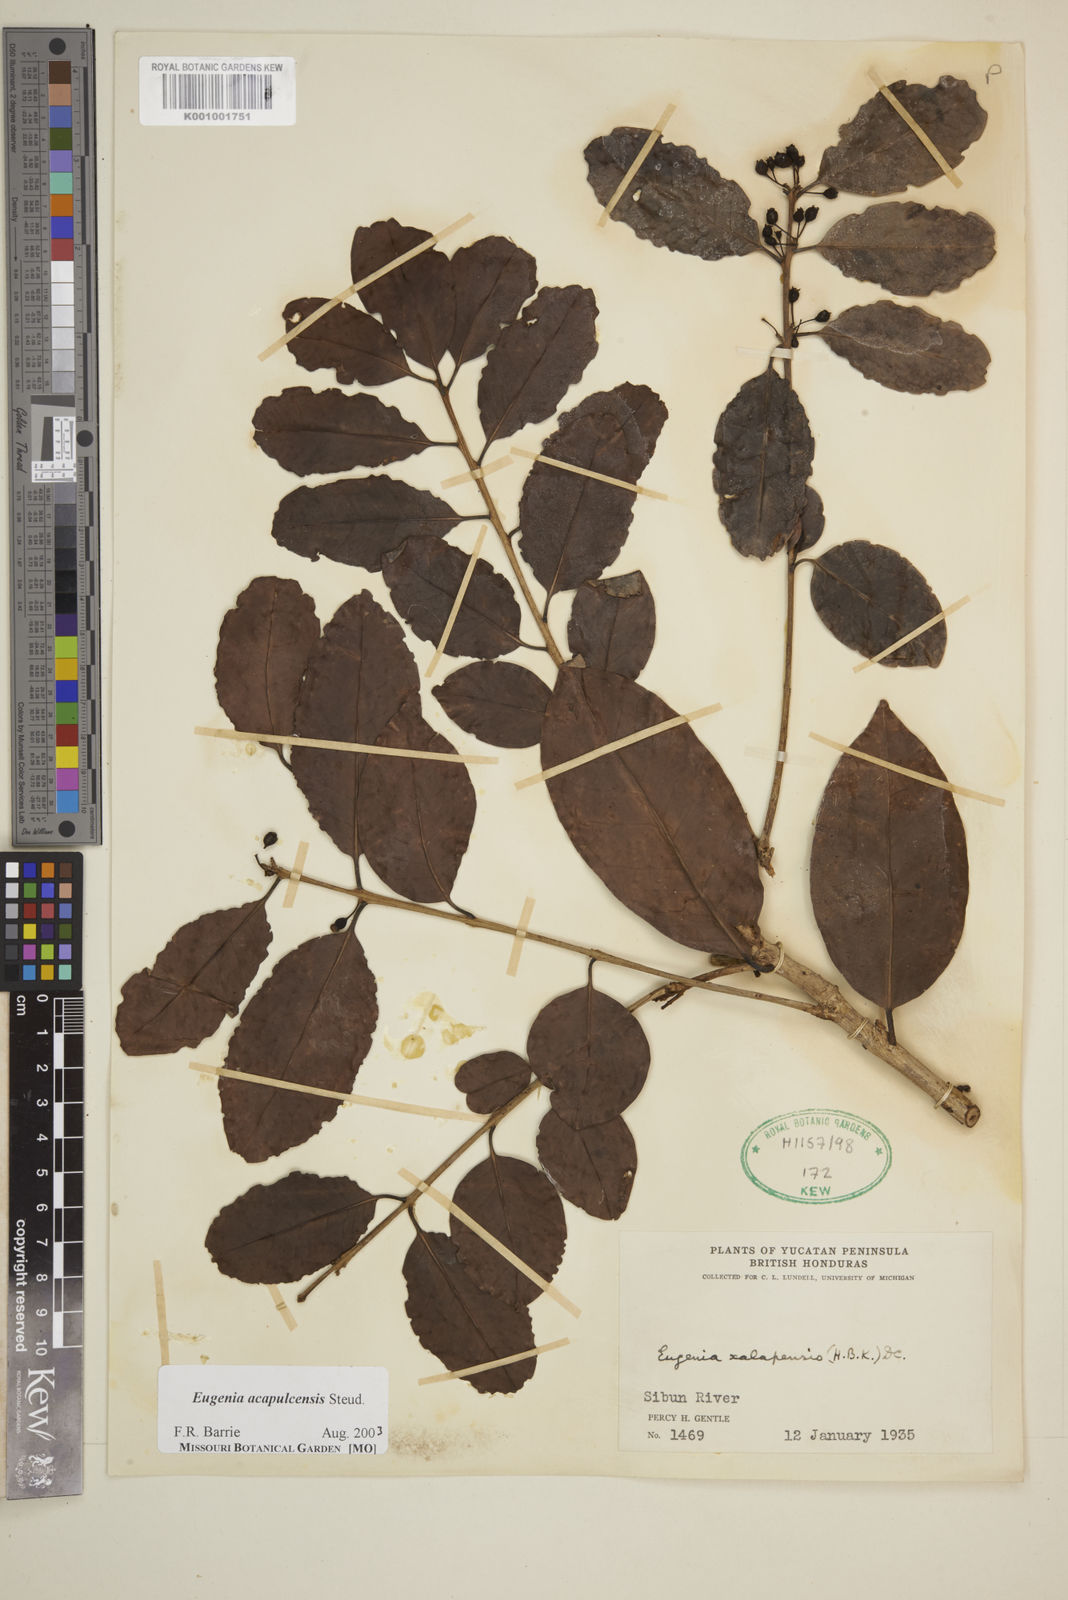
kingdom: Plantae
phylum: Tracheophyta
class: Magnoliopsida
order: Myrtales
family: Myrtaceae
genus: Eugenia
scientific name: Eugenia acapulcensis
